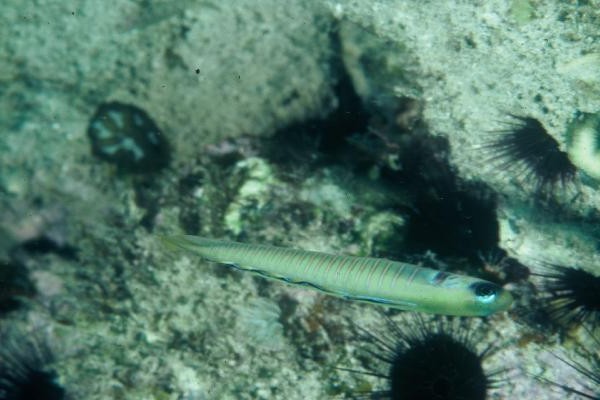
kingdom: Animalia
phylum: Chordata
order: Perciformes
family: Microdesmidae
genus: Ptereleotris
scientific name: Ptereleotris zebra
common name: Chinese zebra goby
